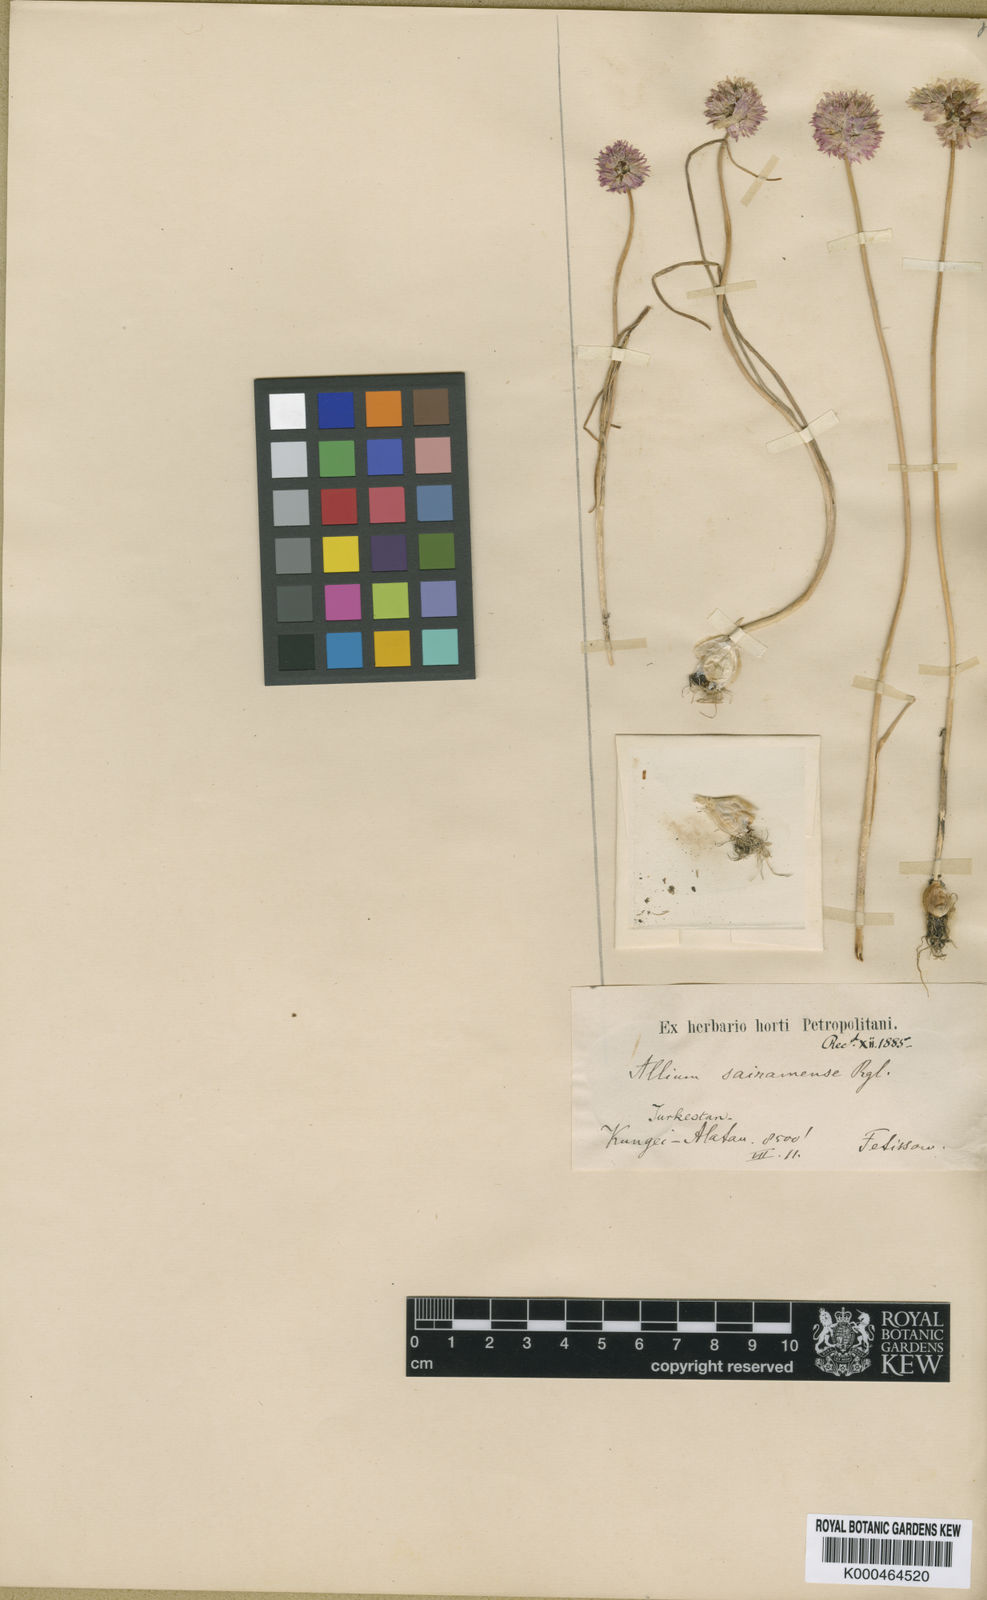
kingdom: Plantae
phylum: Tracheophyta
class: Liliopsida
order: Asparagales
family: Amaryllidaceae
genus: Allium
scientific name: Allium schoenoprasoides
